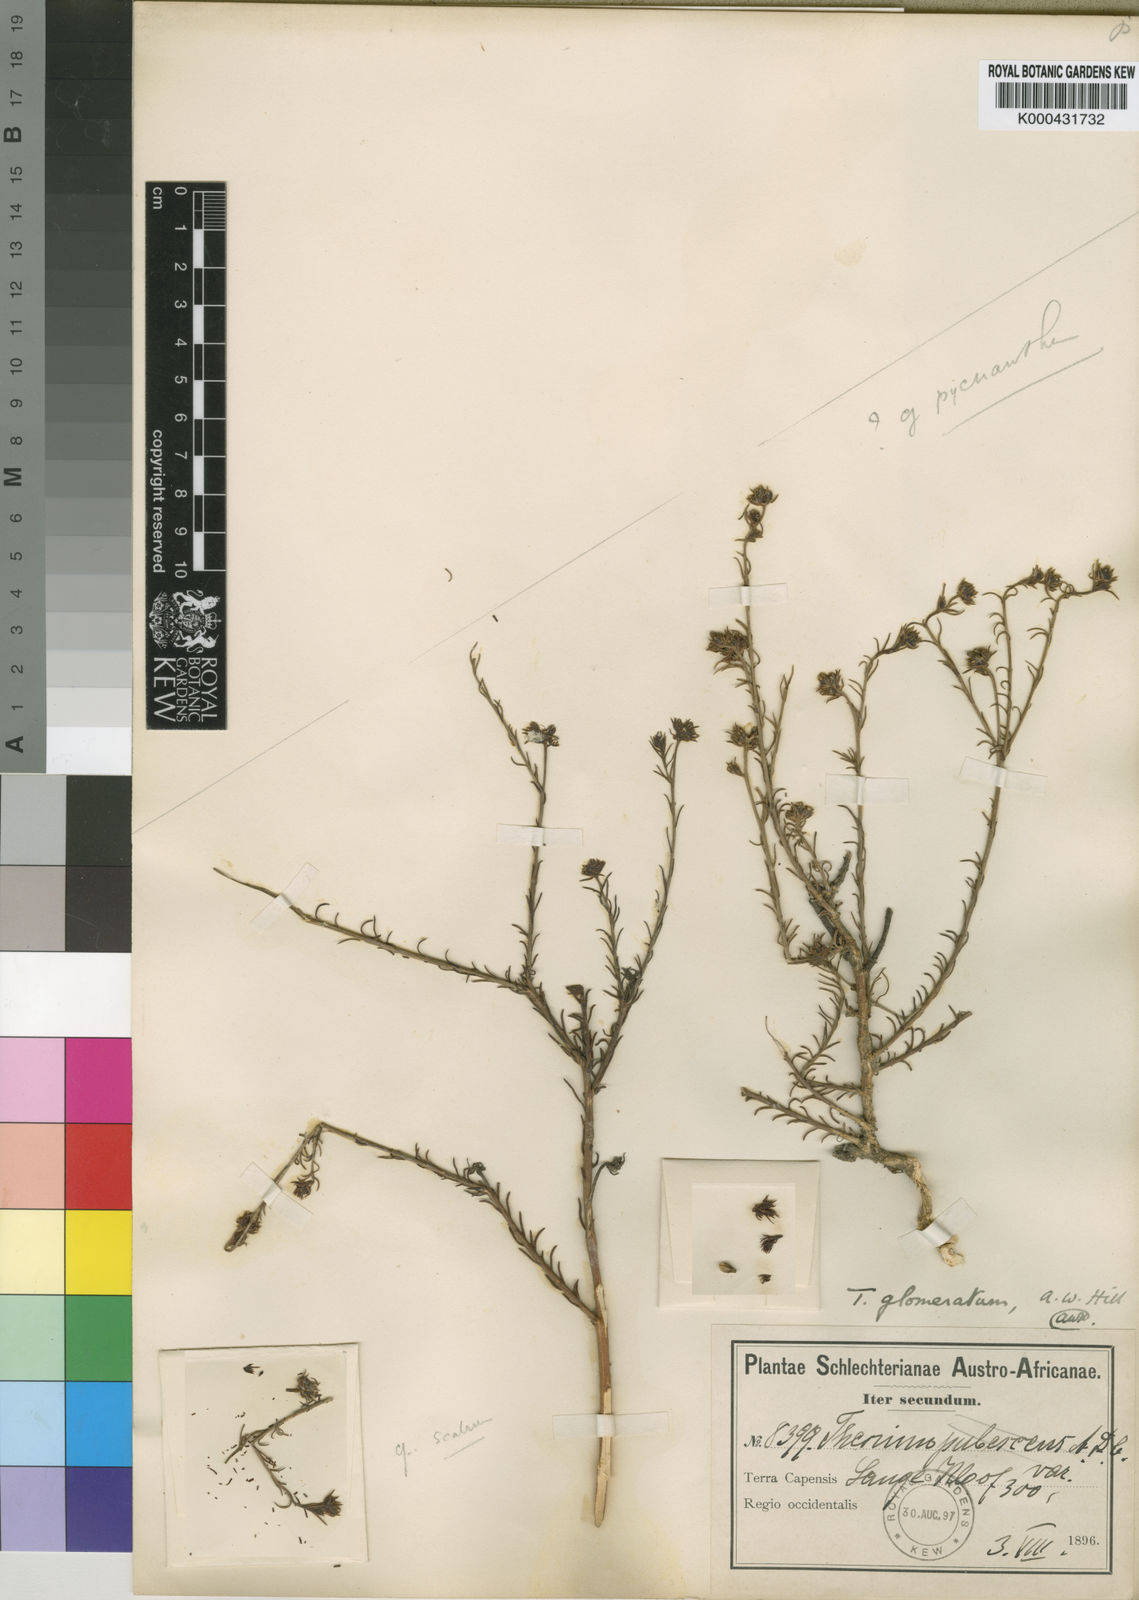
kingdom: Plantae
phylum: Tracheophyta
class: Magnoliopsida
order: Santalales
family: Thesiaceae
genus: Thesium
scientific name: Thesium glomeratum
